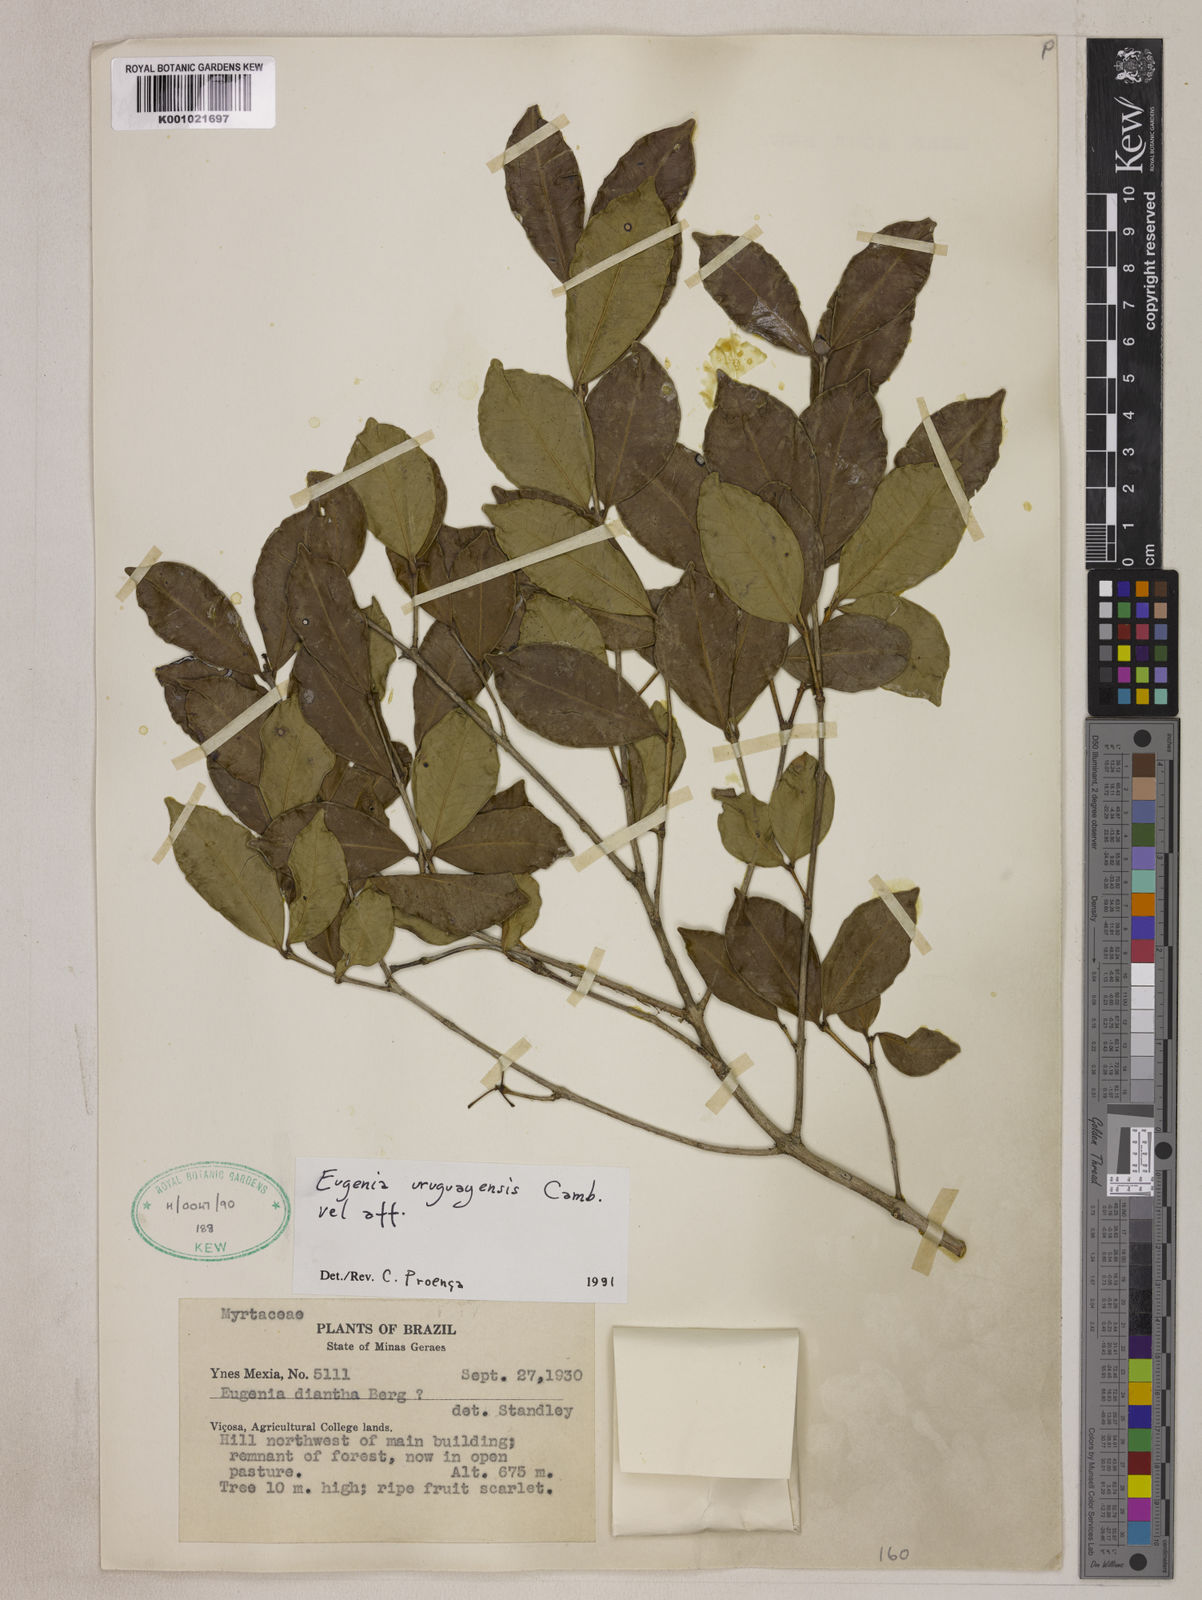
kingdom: Plantae
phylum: Tracheophyta
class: Magnoliopsida
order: Myrtales
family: Myrtaceae
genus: Eugenia
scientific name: Eugenia uruguayensis
